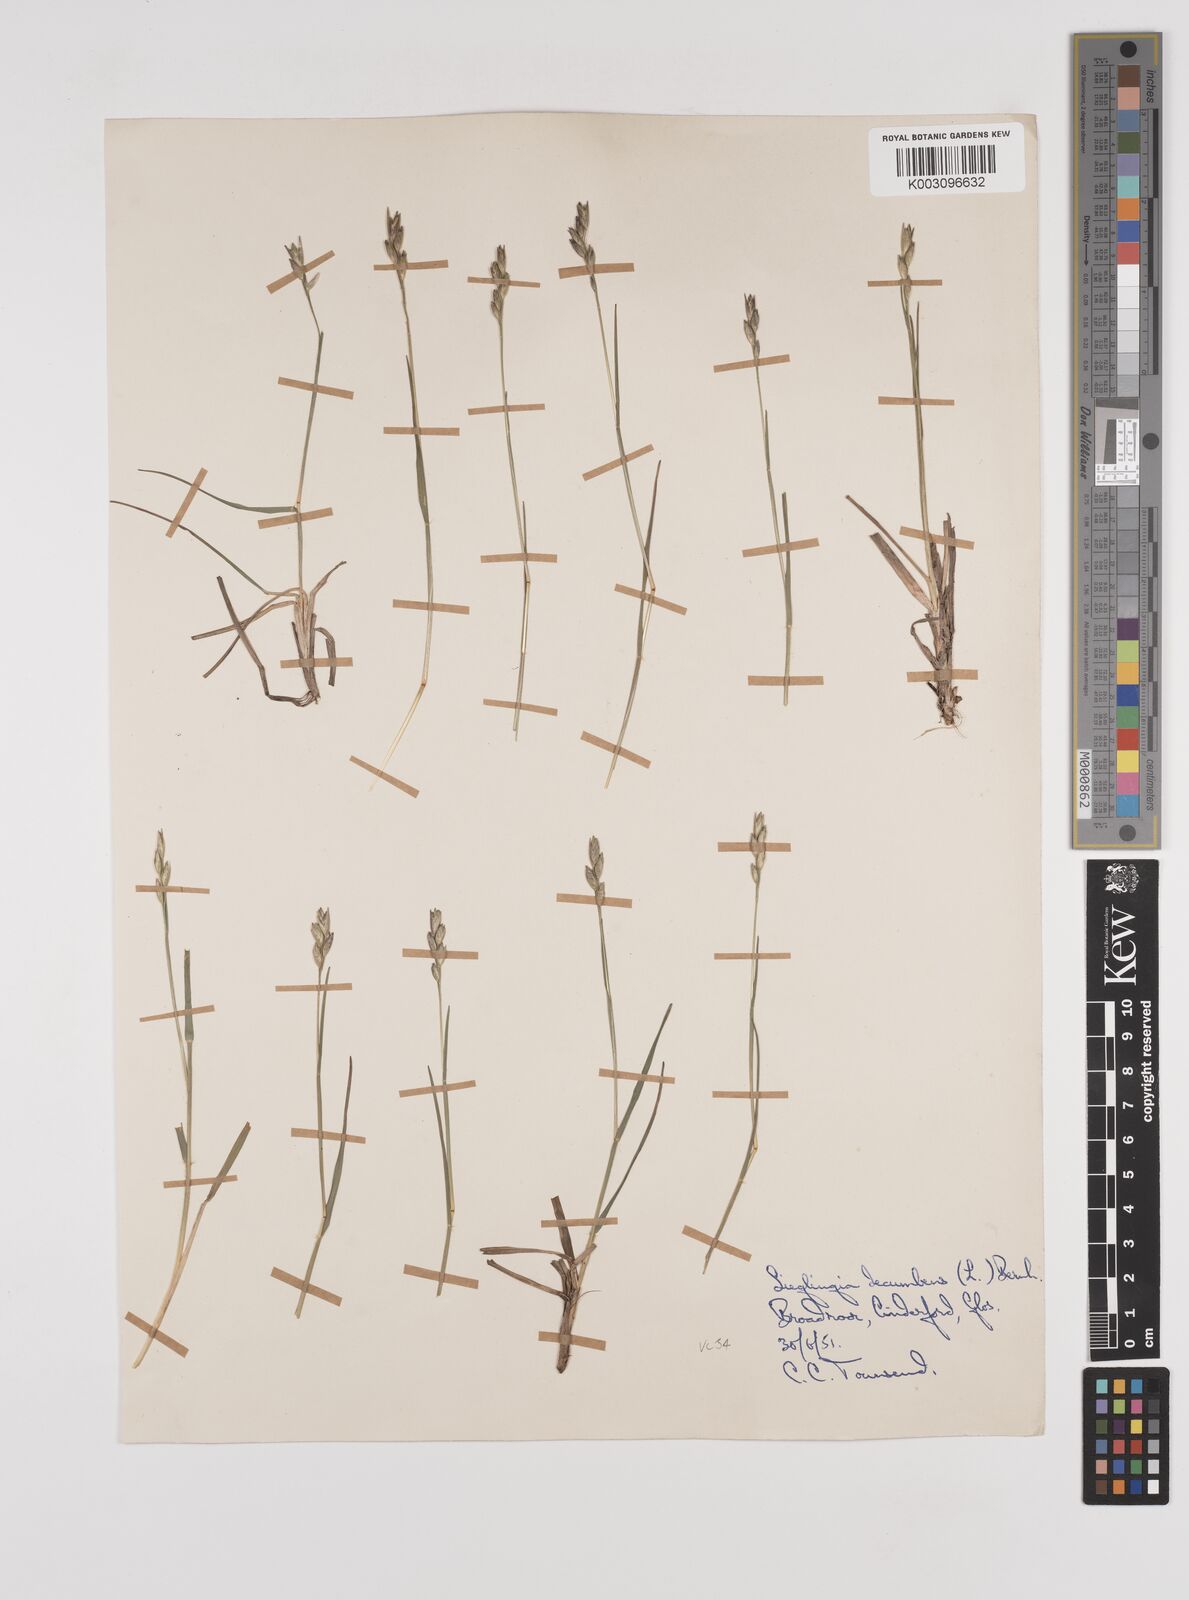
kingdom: Plantae
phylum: Tracheophyta
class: Liliopsida
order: Poales
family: Poaceae
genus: Danthonia
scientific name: Danthonia decumbens
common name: Common heathgrass
